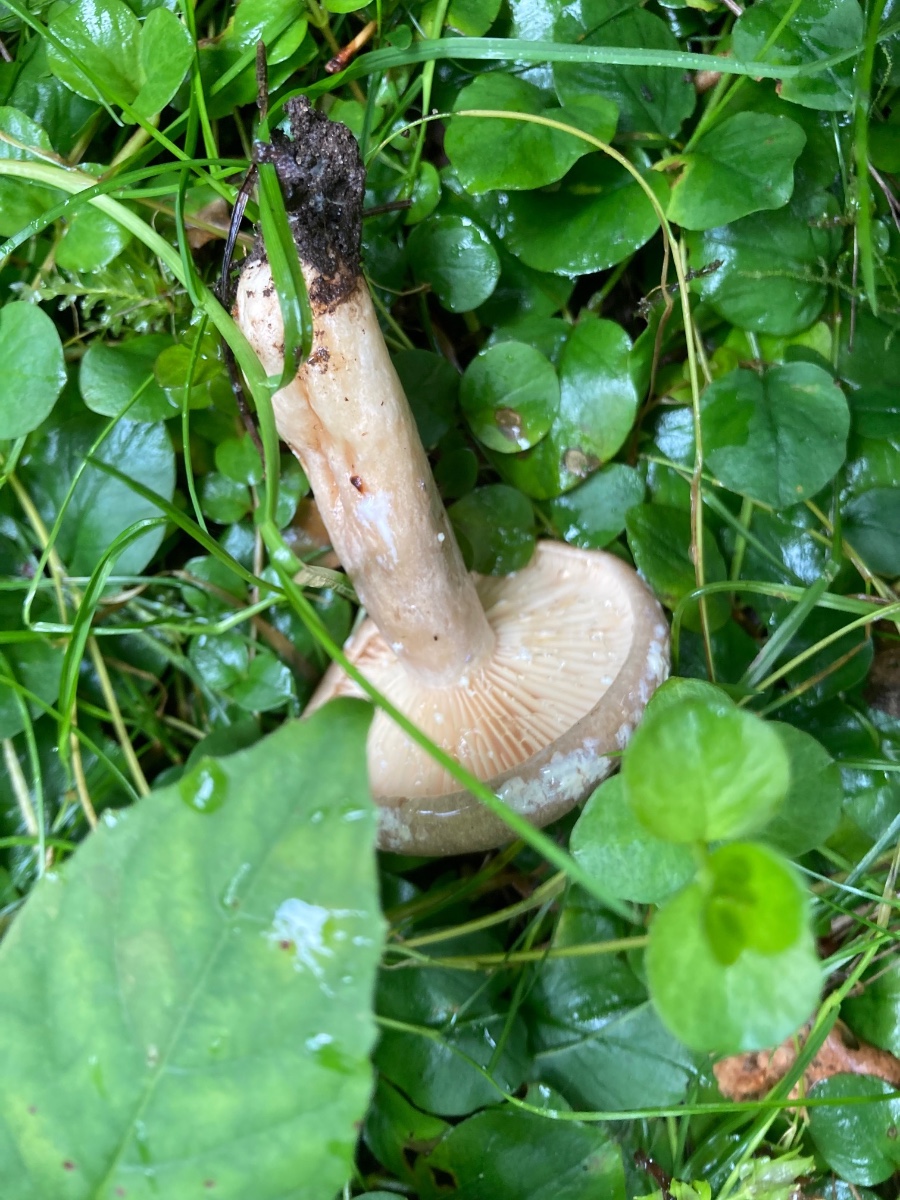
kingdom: Fungi
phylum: Basidiomycota
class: Agaricomycetes
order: Russulales
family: Russulaceae
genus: Lactarius
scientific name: Lactarius pyrogalus
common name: hassel-mælkehat
